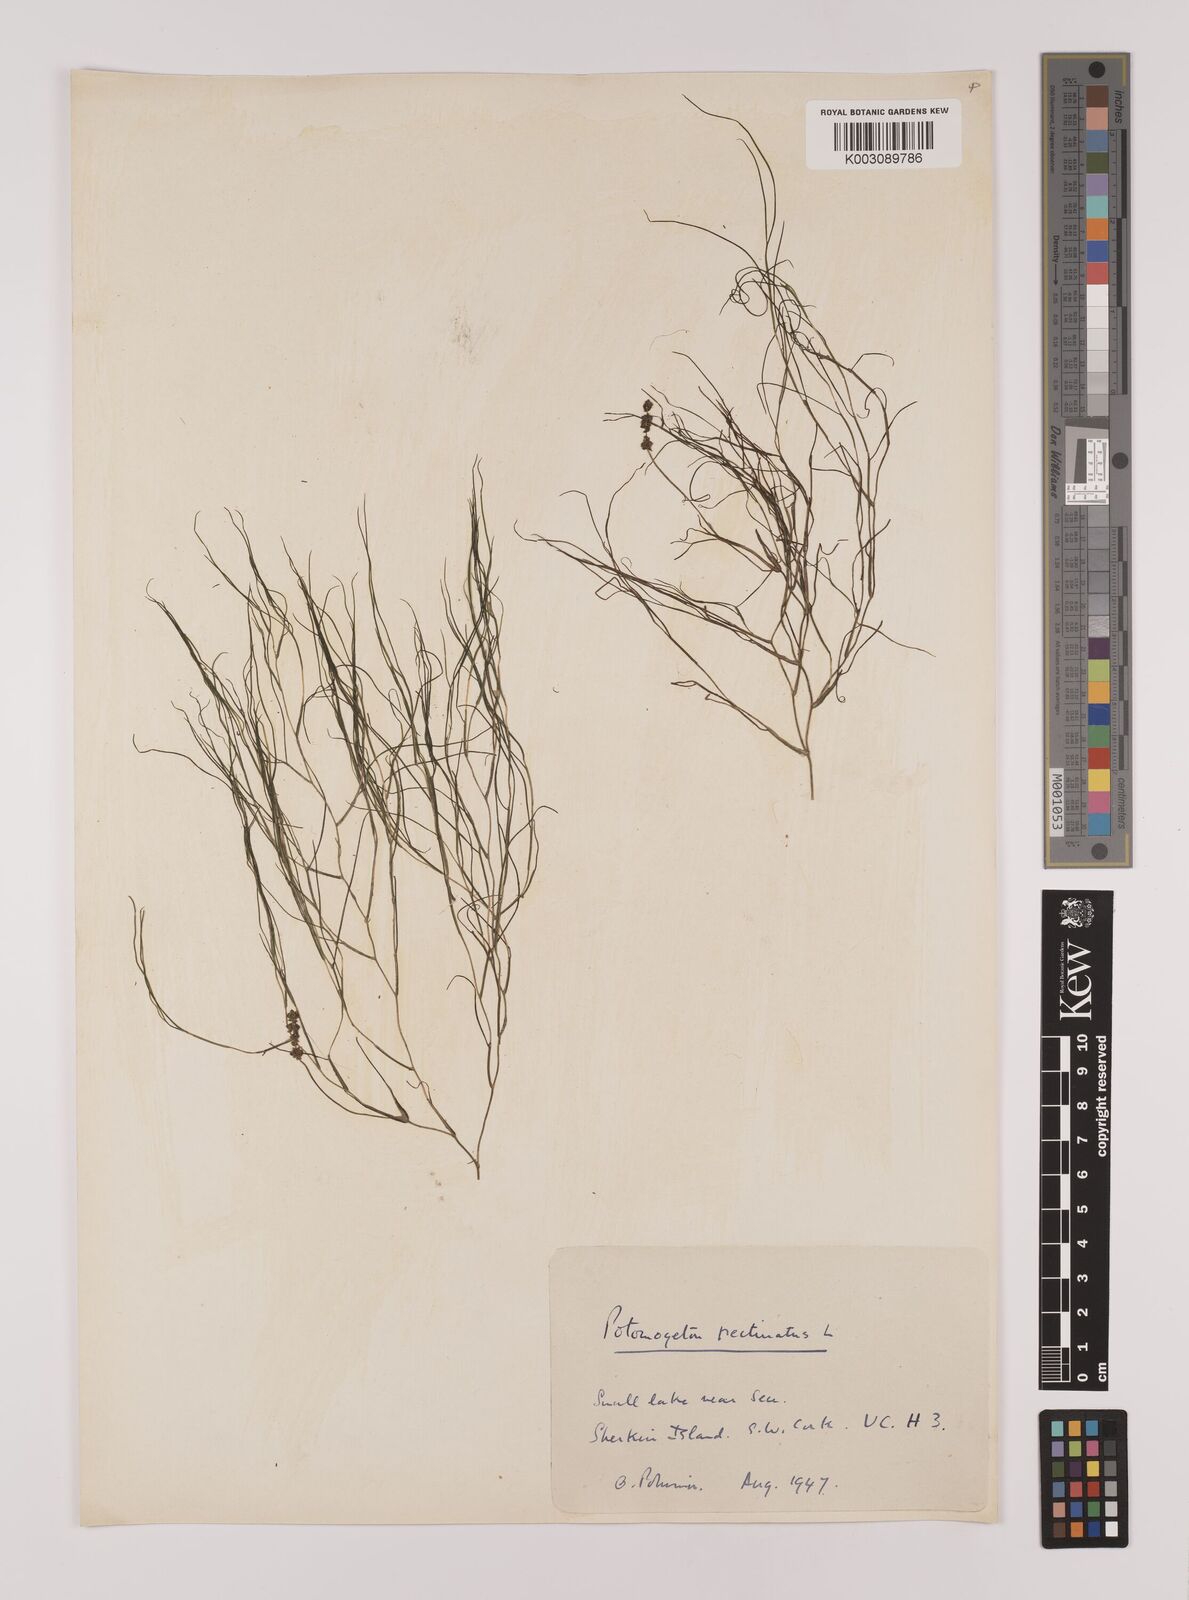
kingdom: Plantae
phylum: Tracheophyta
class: Liliopsida
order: Alismatales
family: Potamogetonaceae
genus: Stuckenia
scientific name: Stuckenia pectinata
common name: Sago pondweed
